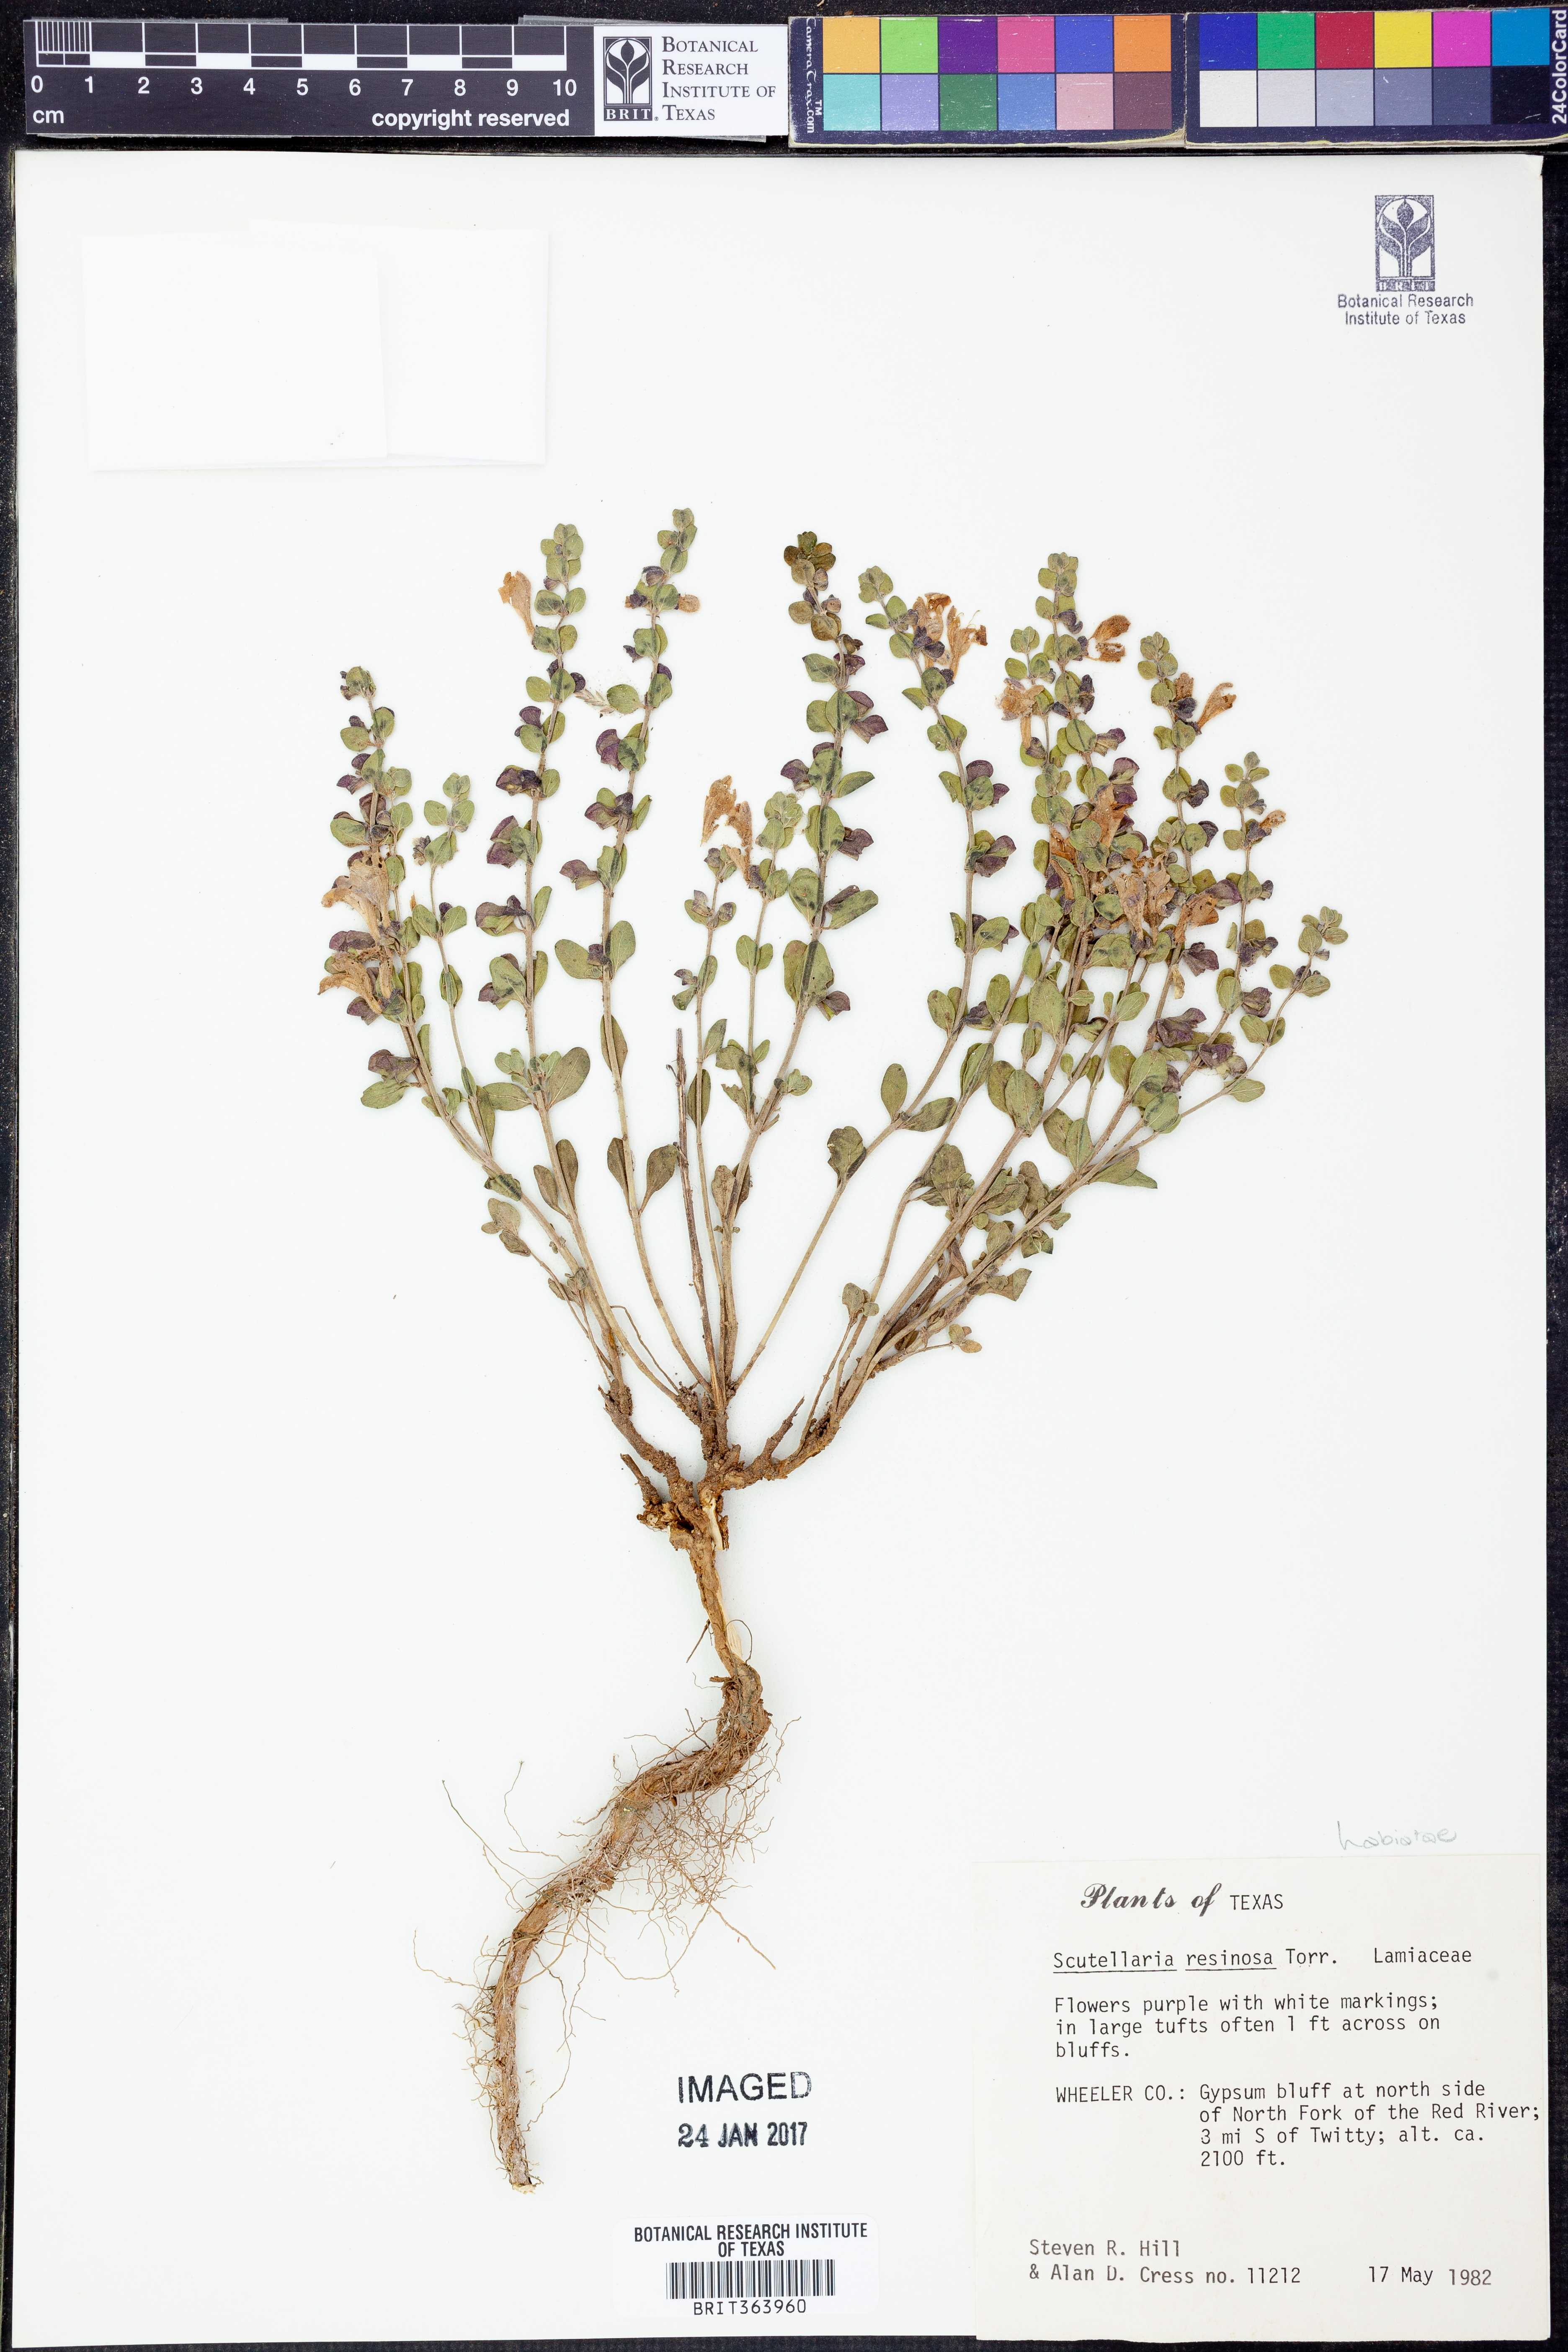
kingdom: Plantae
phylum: Tracheophyta
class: Magnoliopsida
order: Lamiales
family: Lamiaceae
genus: Scutellaria
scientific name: Scutellaria resinosa
